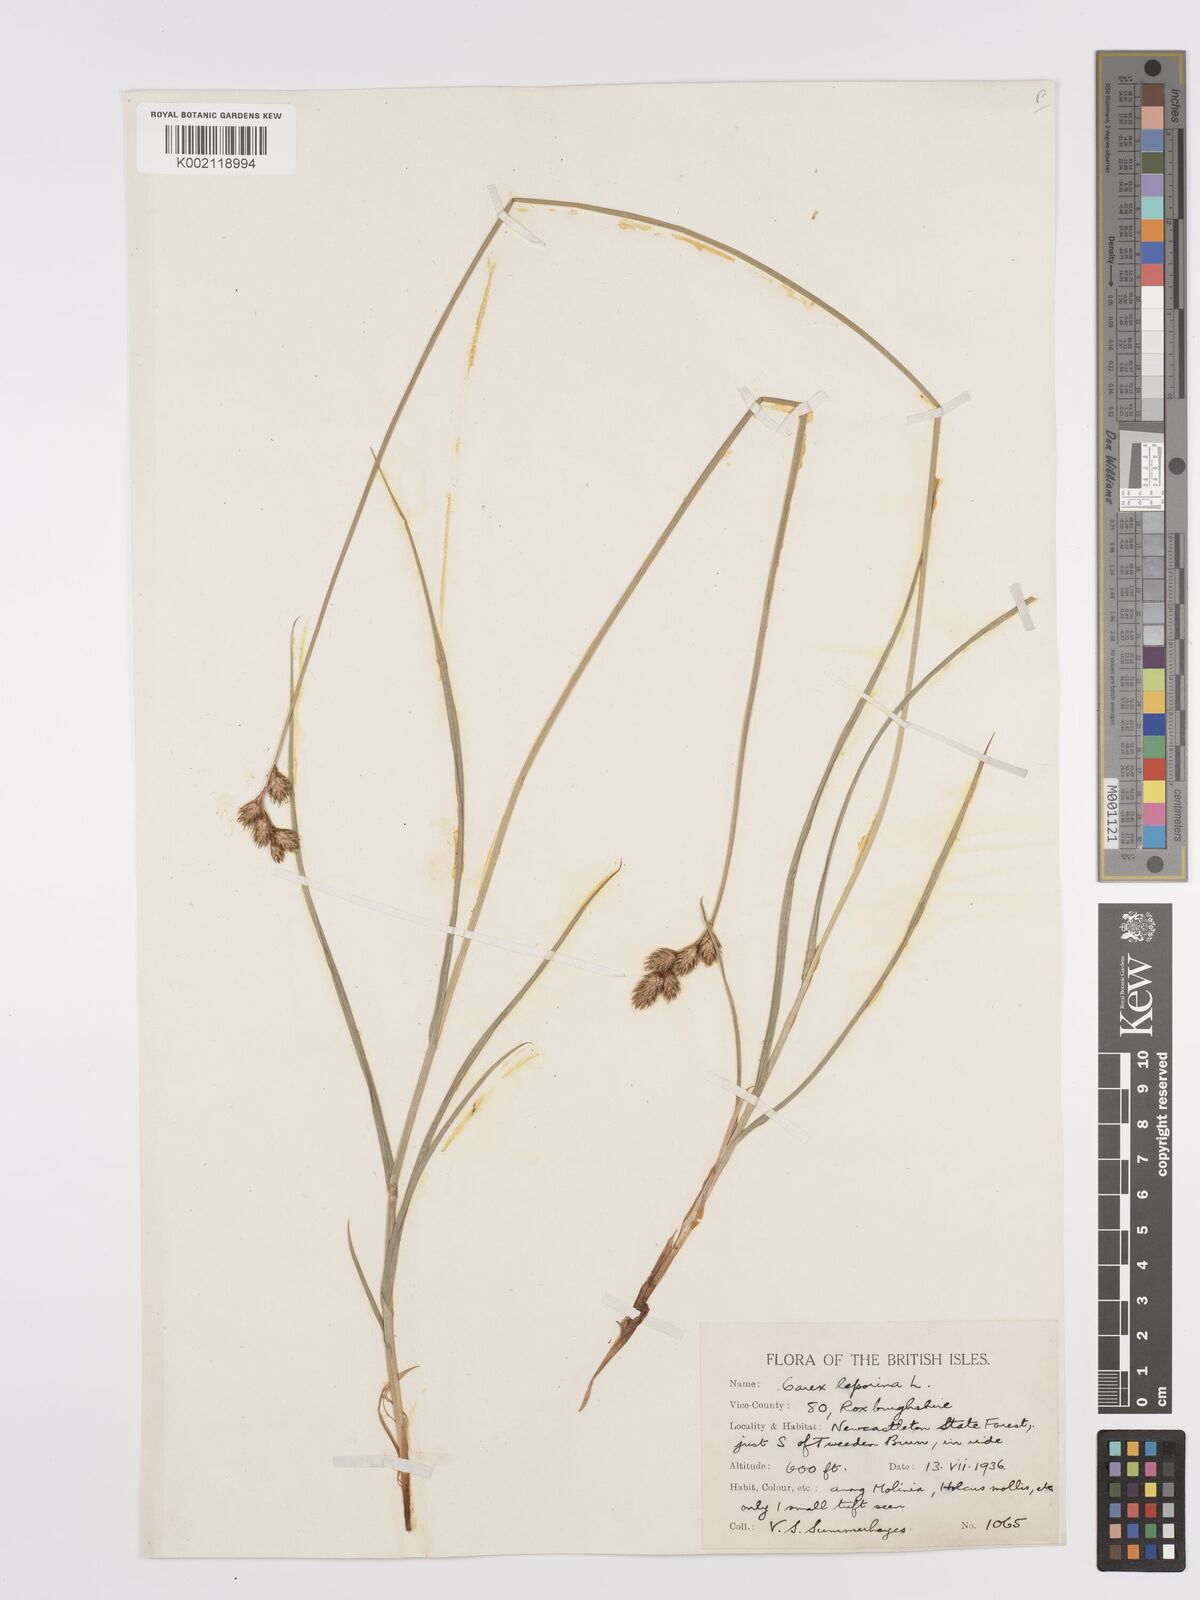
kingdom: Plantae
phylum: Tracheophyta
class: Liliopsida
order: Poales
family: Cyperaceae
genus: Carex
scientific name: Carex leporina
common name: Oval sedge
